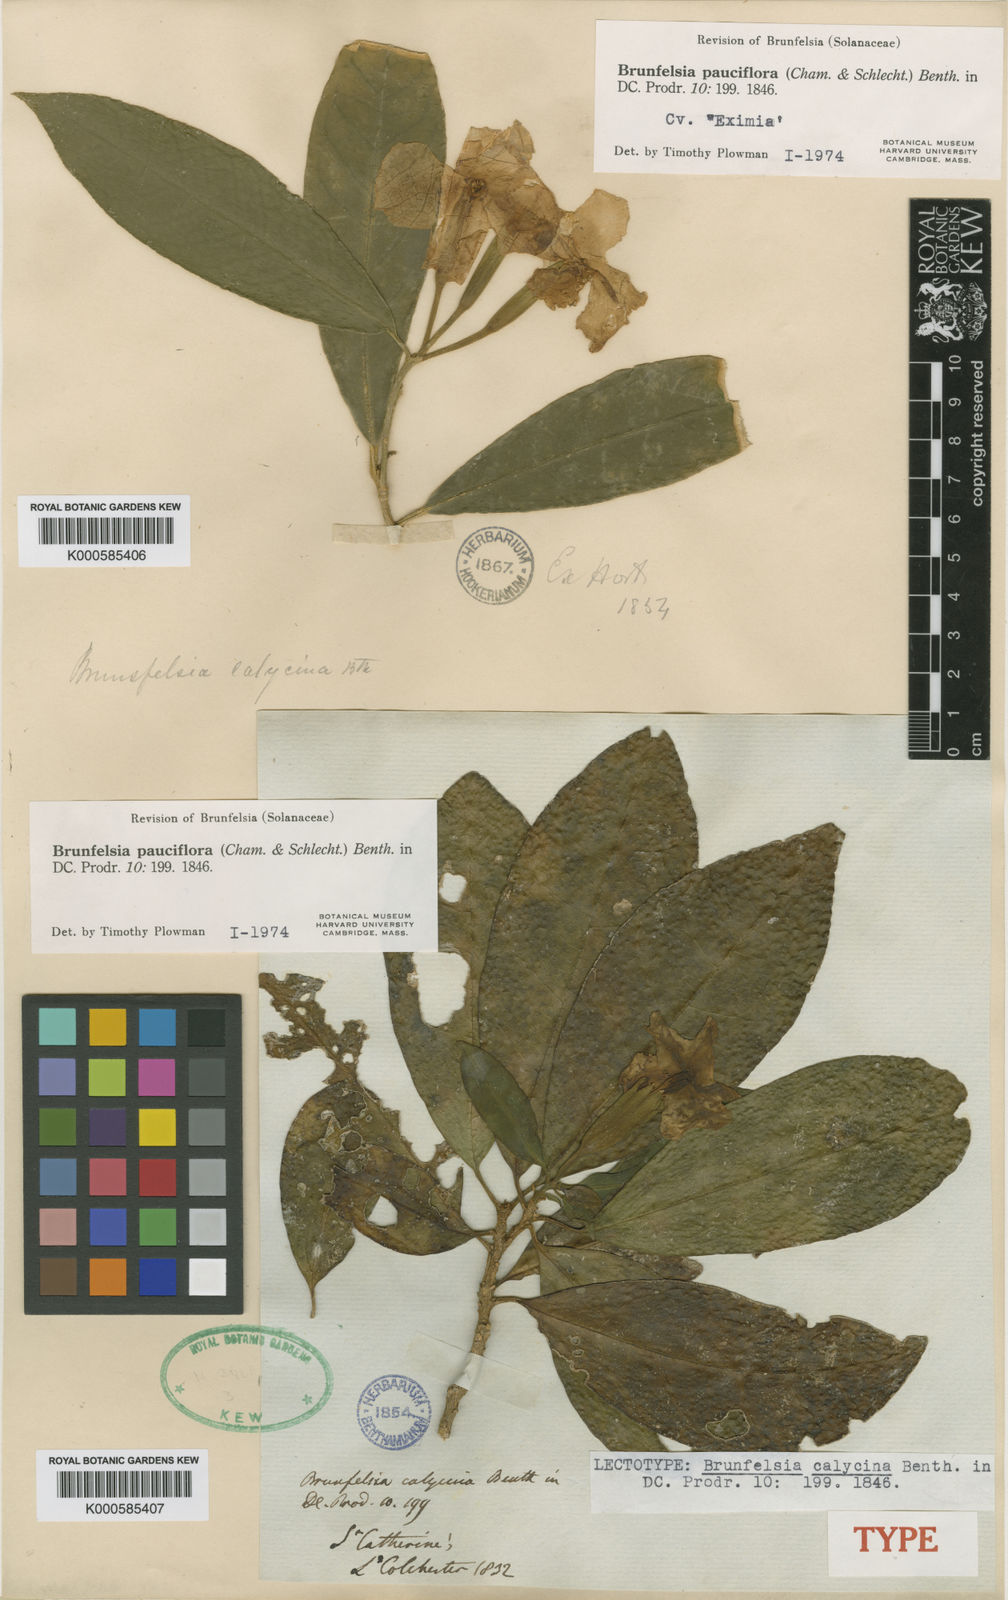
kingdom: Plantae
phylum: Tracheophyta
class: Magnoliopsida
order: Solanales
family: Solanaceae
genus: Brunfelsia
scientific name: Brunfelsia pauciflora
